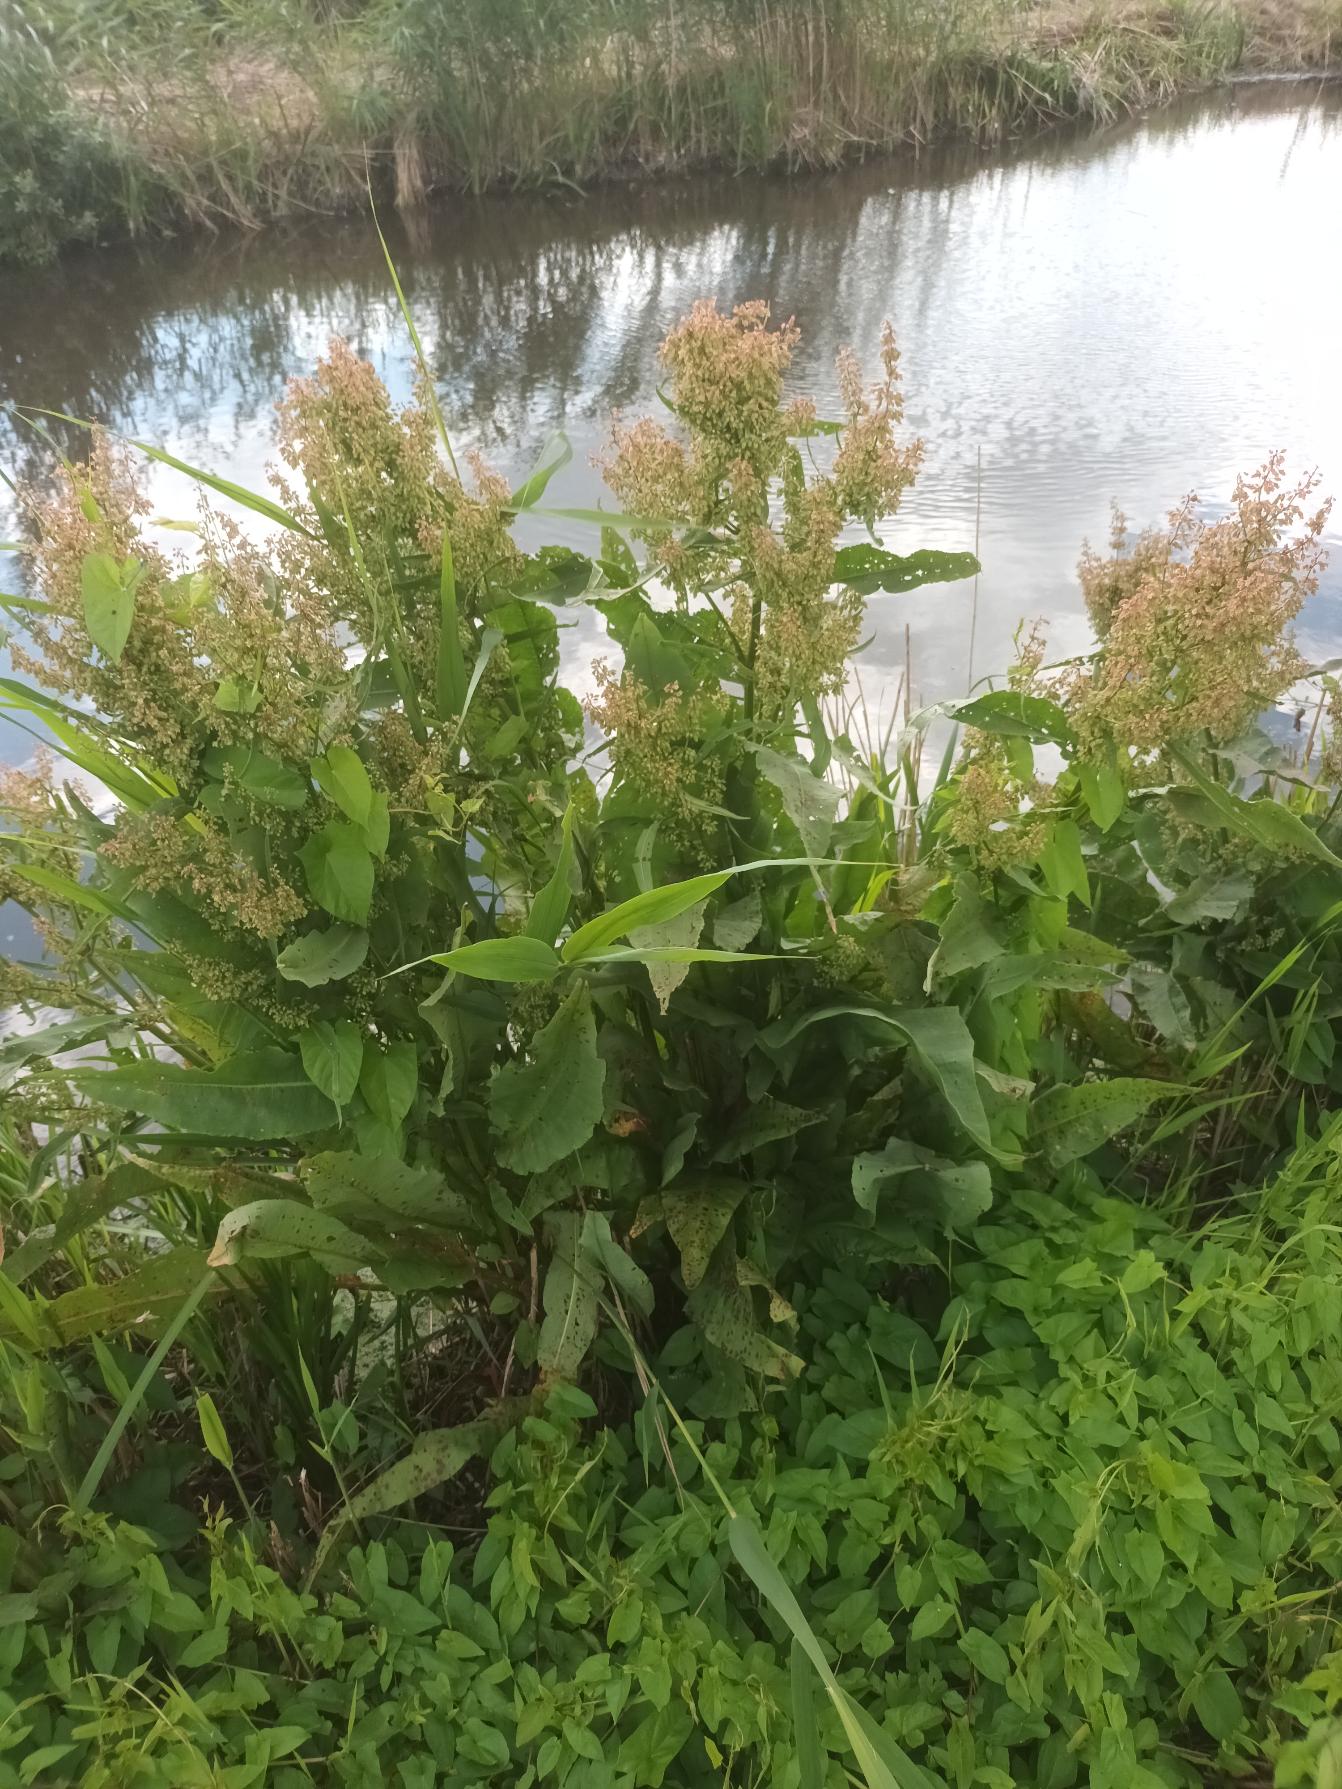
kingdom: Plantae
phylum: Tracheophyta
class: Magnoliopsida
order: Caryophyllales
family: Polygonaceae
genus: Rumex
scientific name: Rumex hydrolapathum
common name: Vand-skræppe
